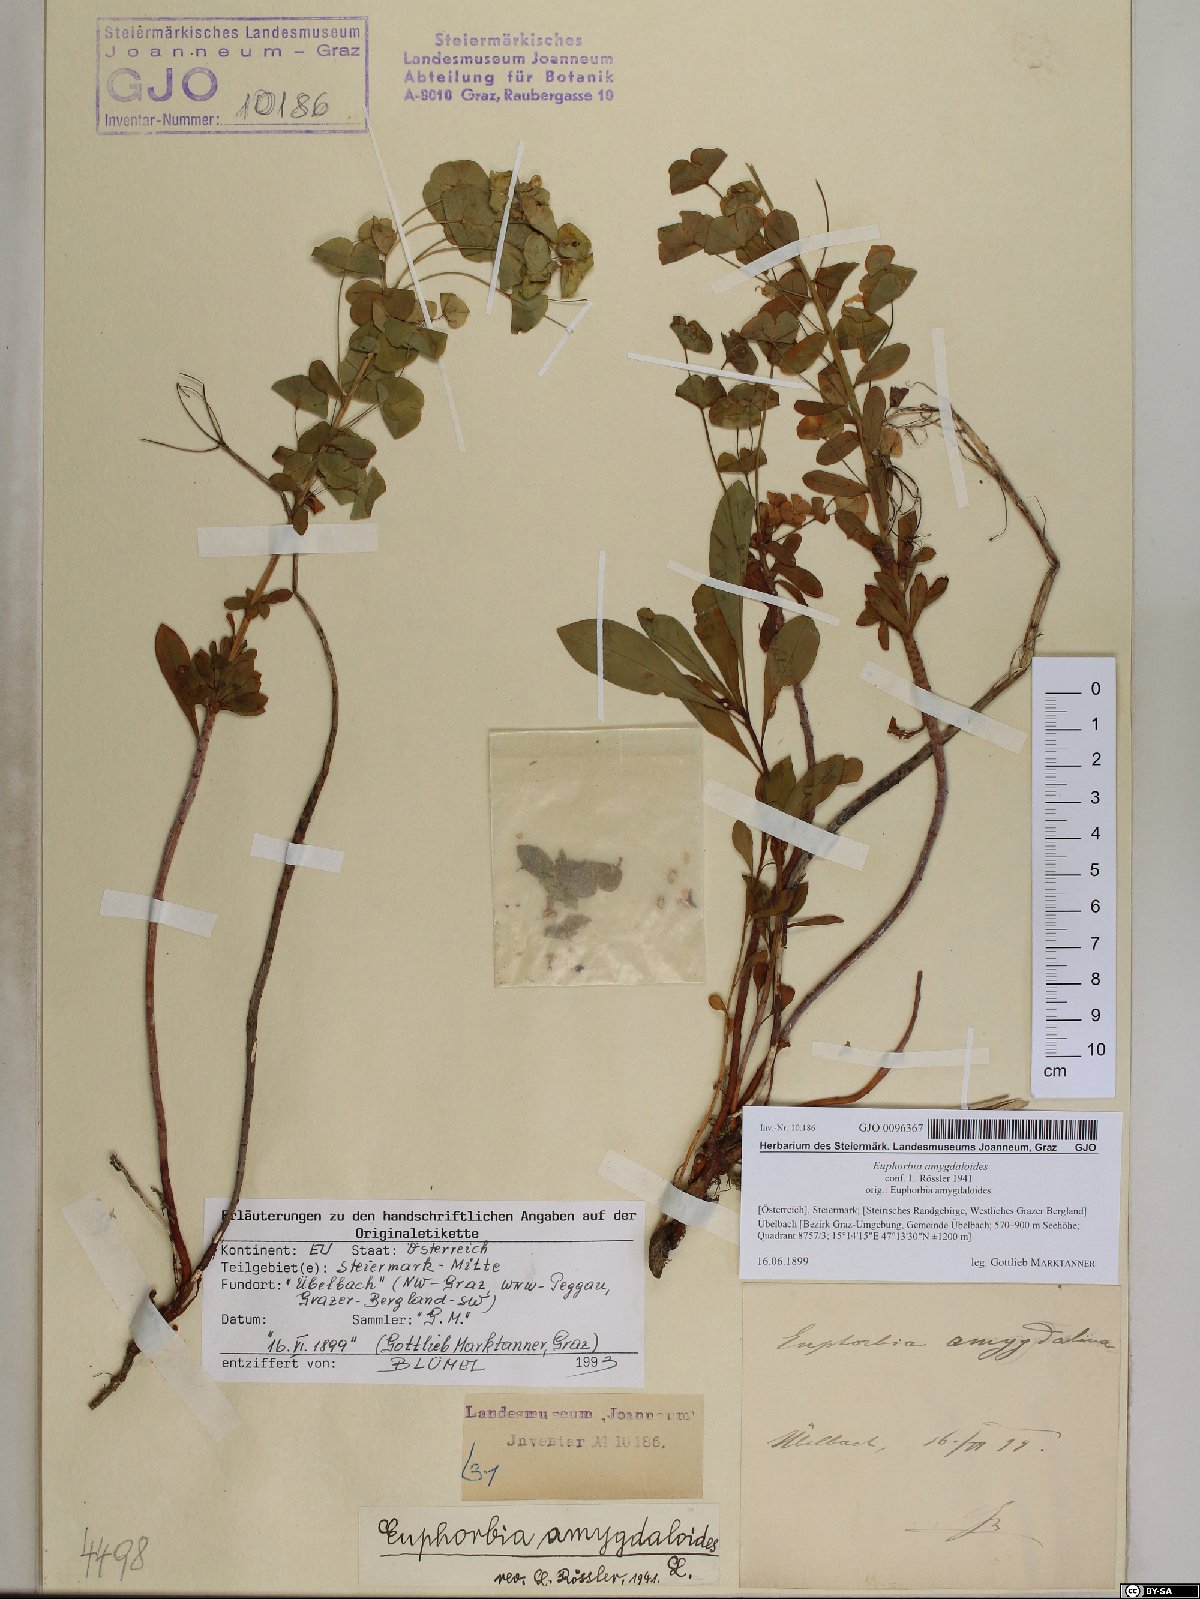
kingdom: Plantae
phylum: Tracheophyta
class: Magnoliopsida
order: Malpighiales
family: Euphorbiaceae
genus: Euphorbia
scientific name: Euphorbia amygdaloides
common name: Wood spurge
